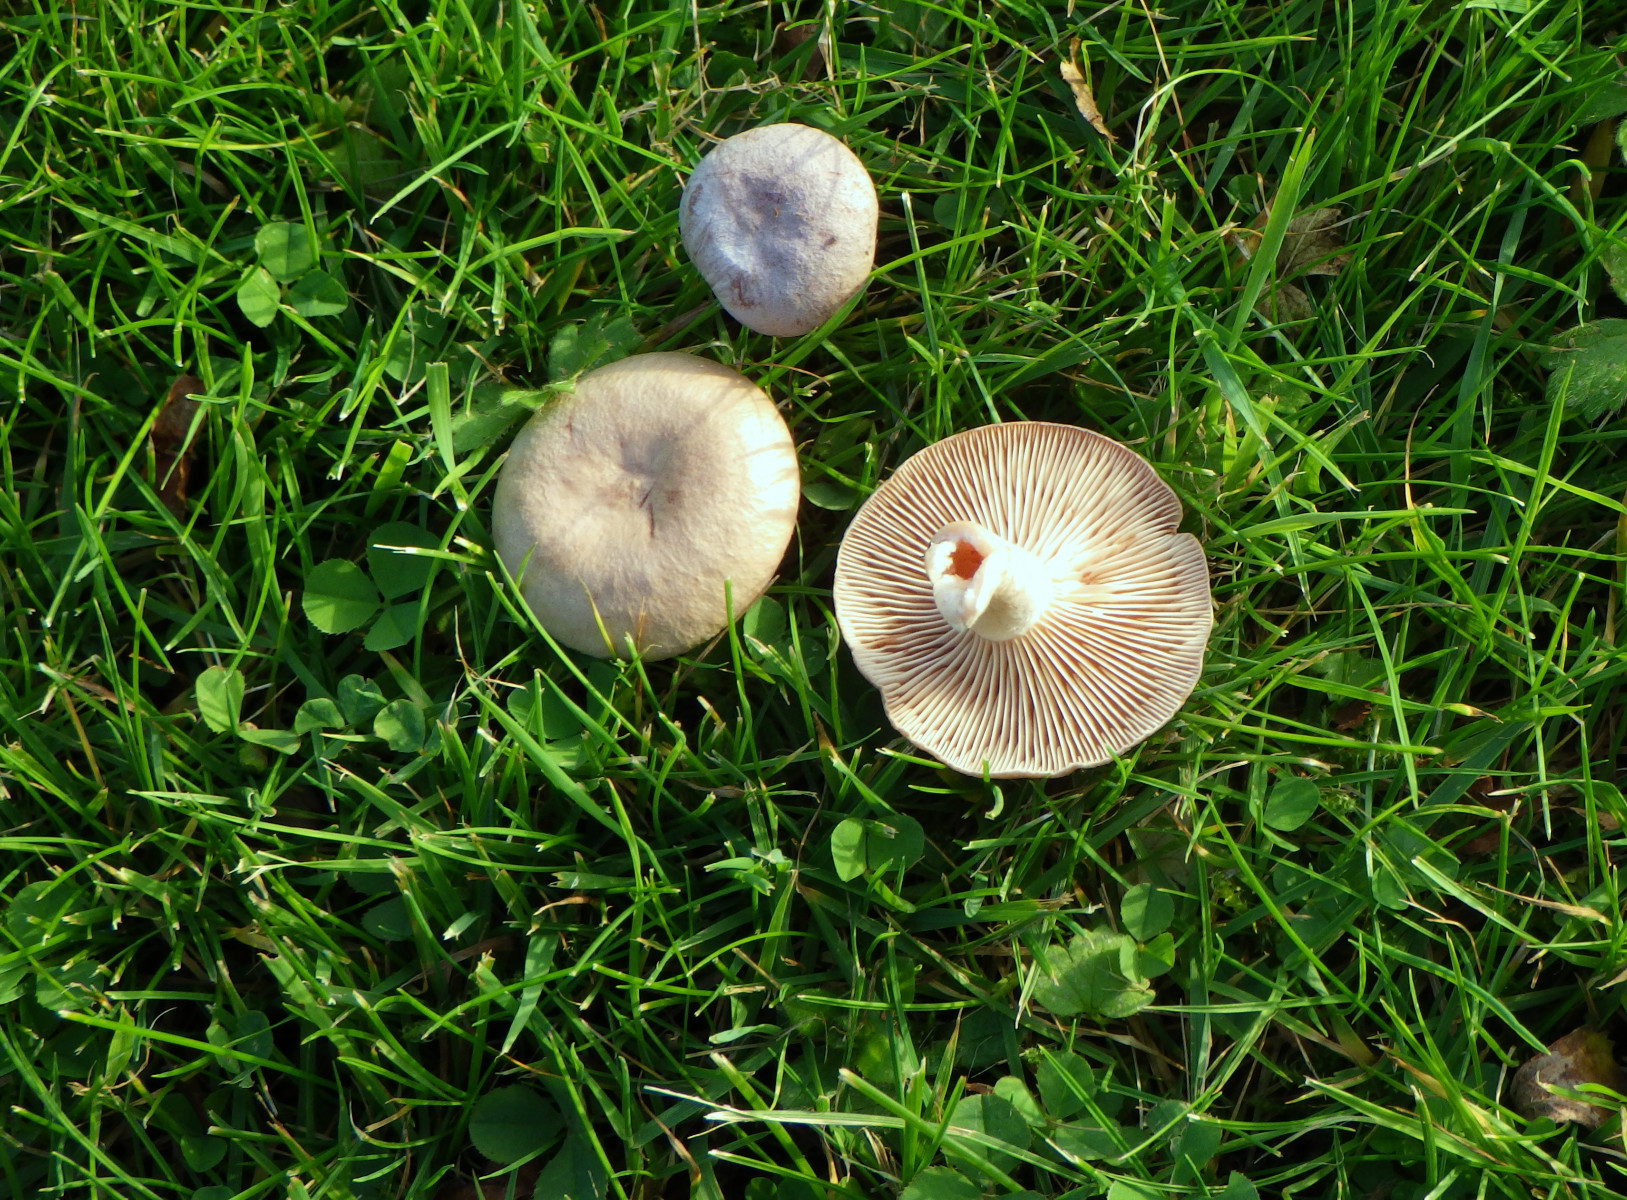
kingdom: Fungi
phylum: Basidiomycota
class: Agaricomycetes
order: Russulales
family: Russulaceae
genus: Lactarius
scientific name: Lactarius glyciosmus
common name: kokos-mælkehat
